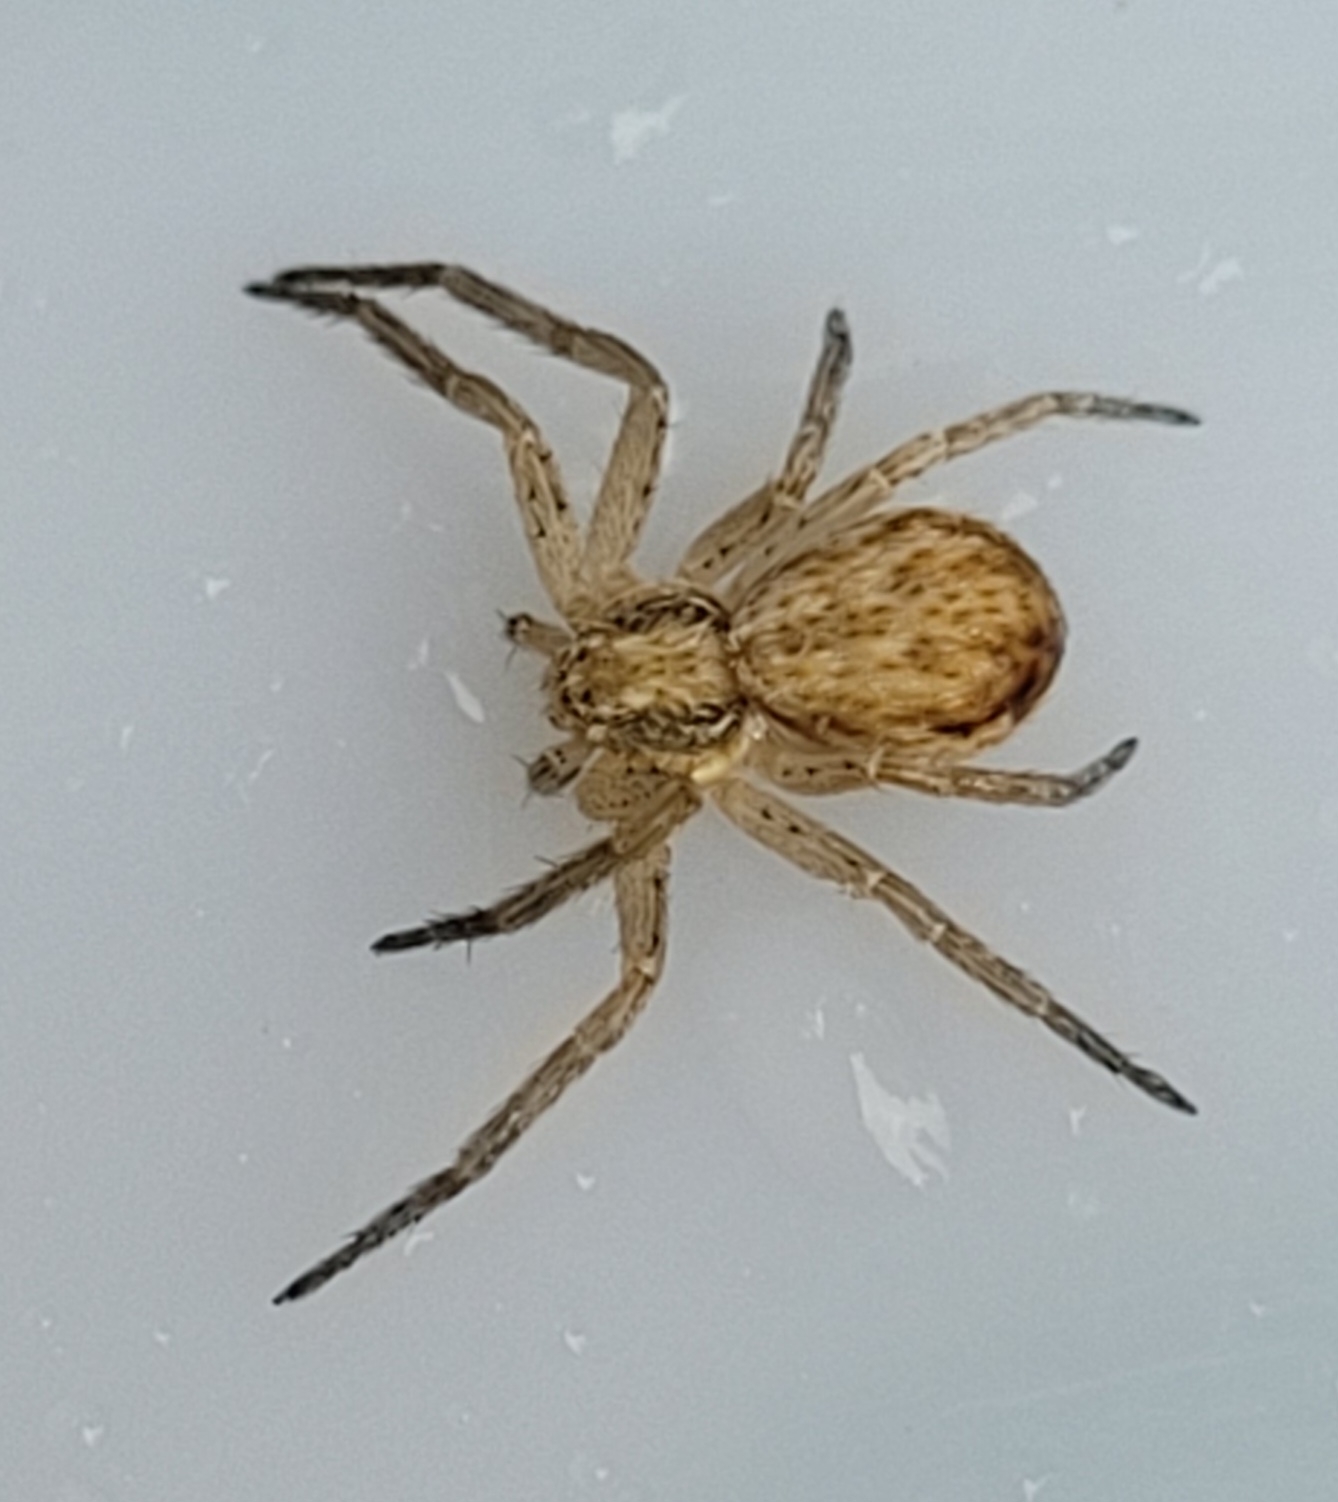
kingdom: Animalia
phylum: Arthropoda
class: Arachnida
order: Araneae
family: Philodromidae
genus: Philodromus
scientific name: Philodromus dispar
